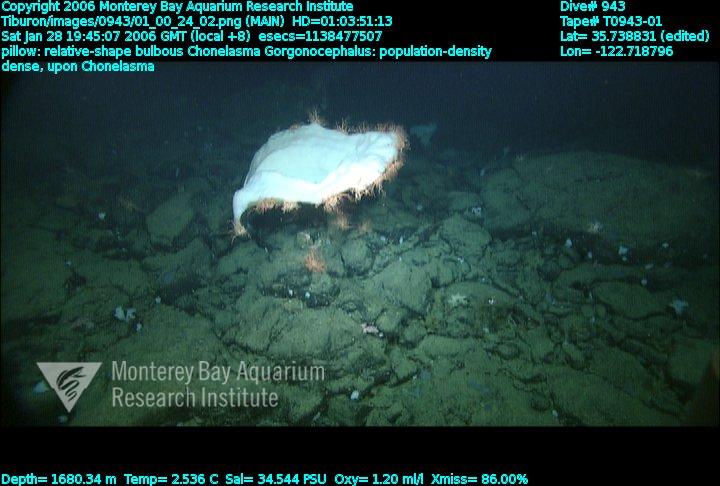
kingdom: Animalia
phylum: Porifera
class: Hexactinellida
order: Sceptrulophora
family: Euretidae
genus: Chonelasma
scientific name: Chonelasma
